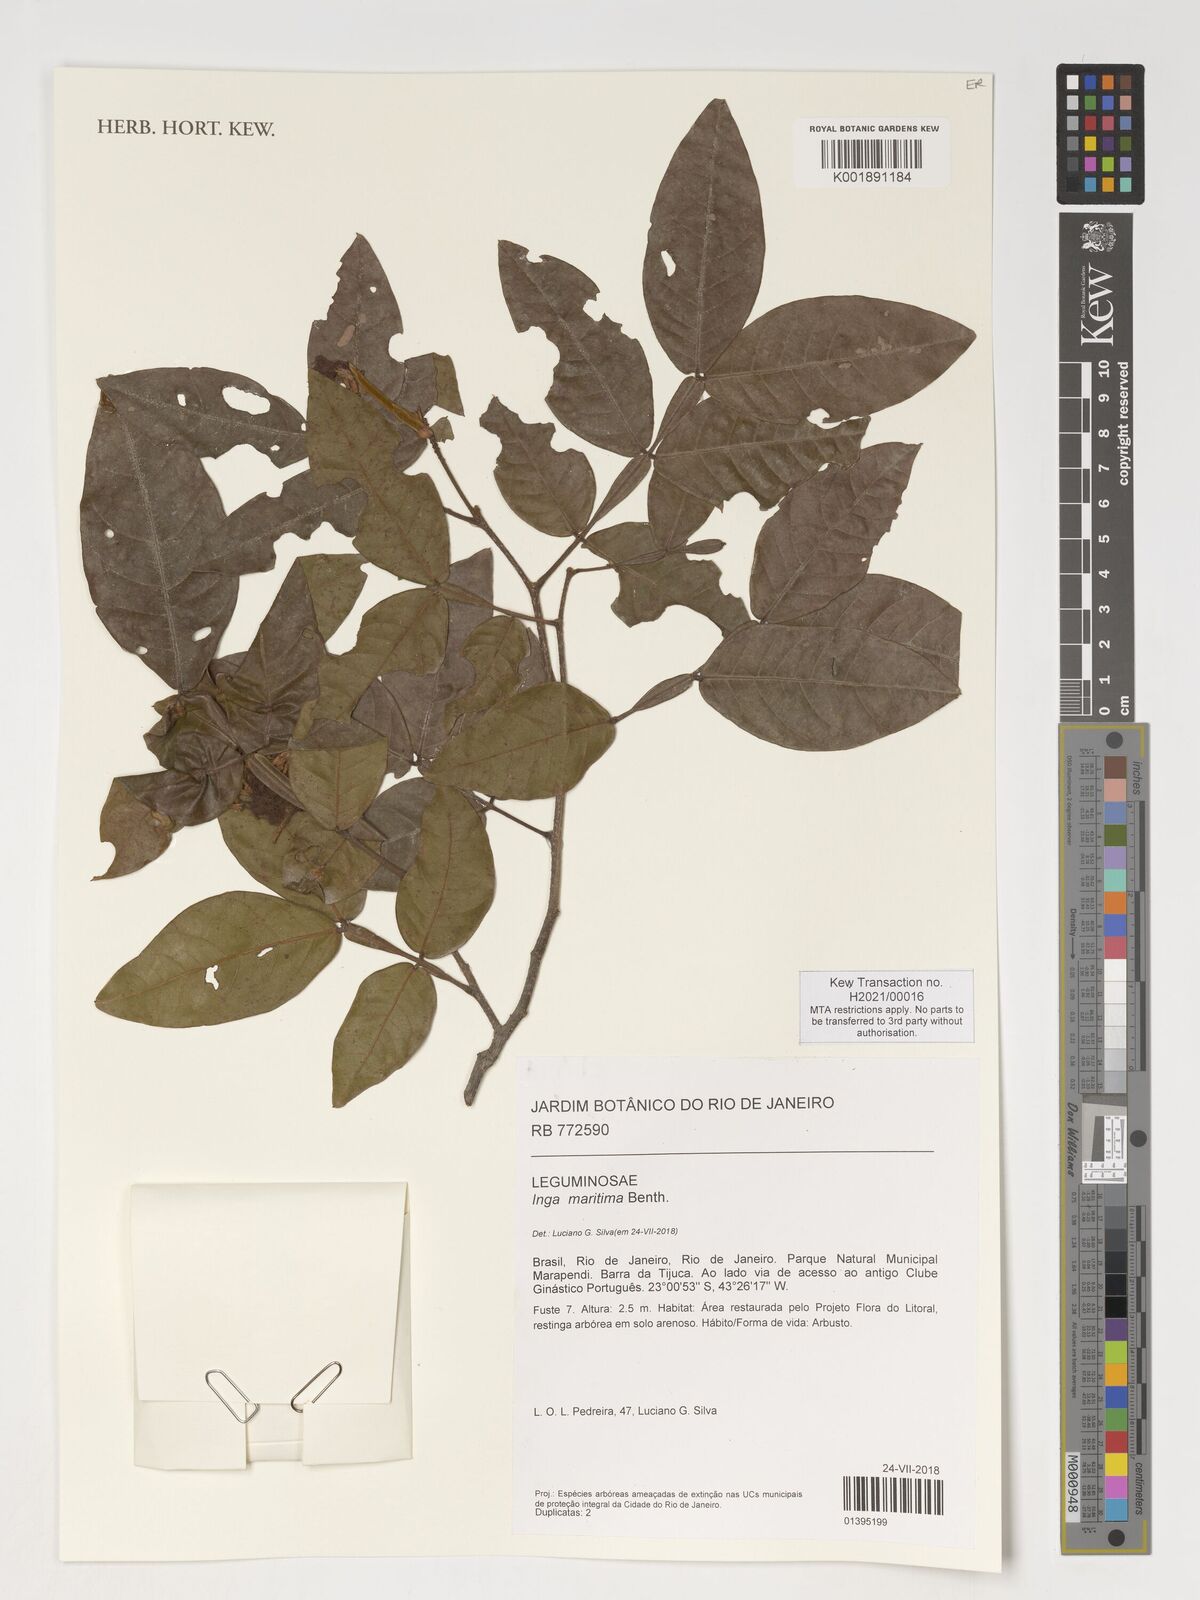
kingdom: Plantae
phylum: Tracheophyta
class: Magnoliopsida
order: Fabales
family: Fabaceae
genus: Inga
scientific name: Inga maritima
